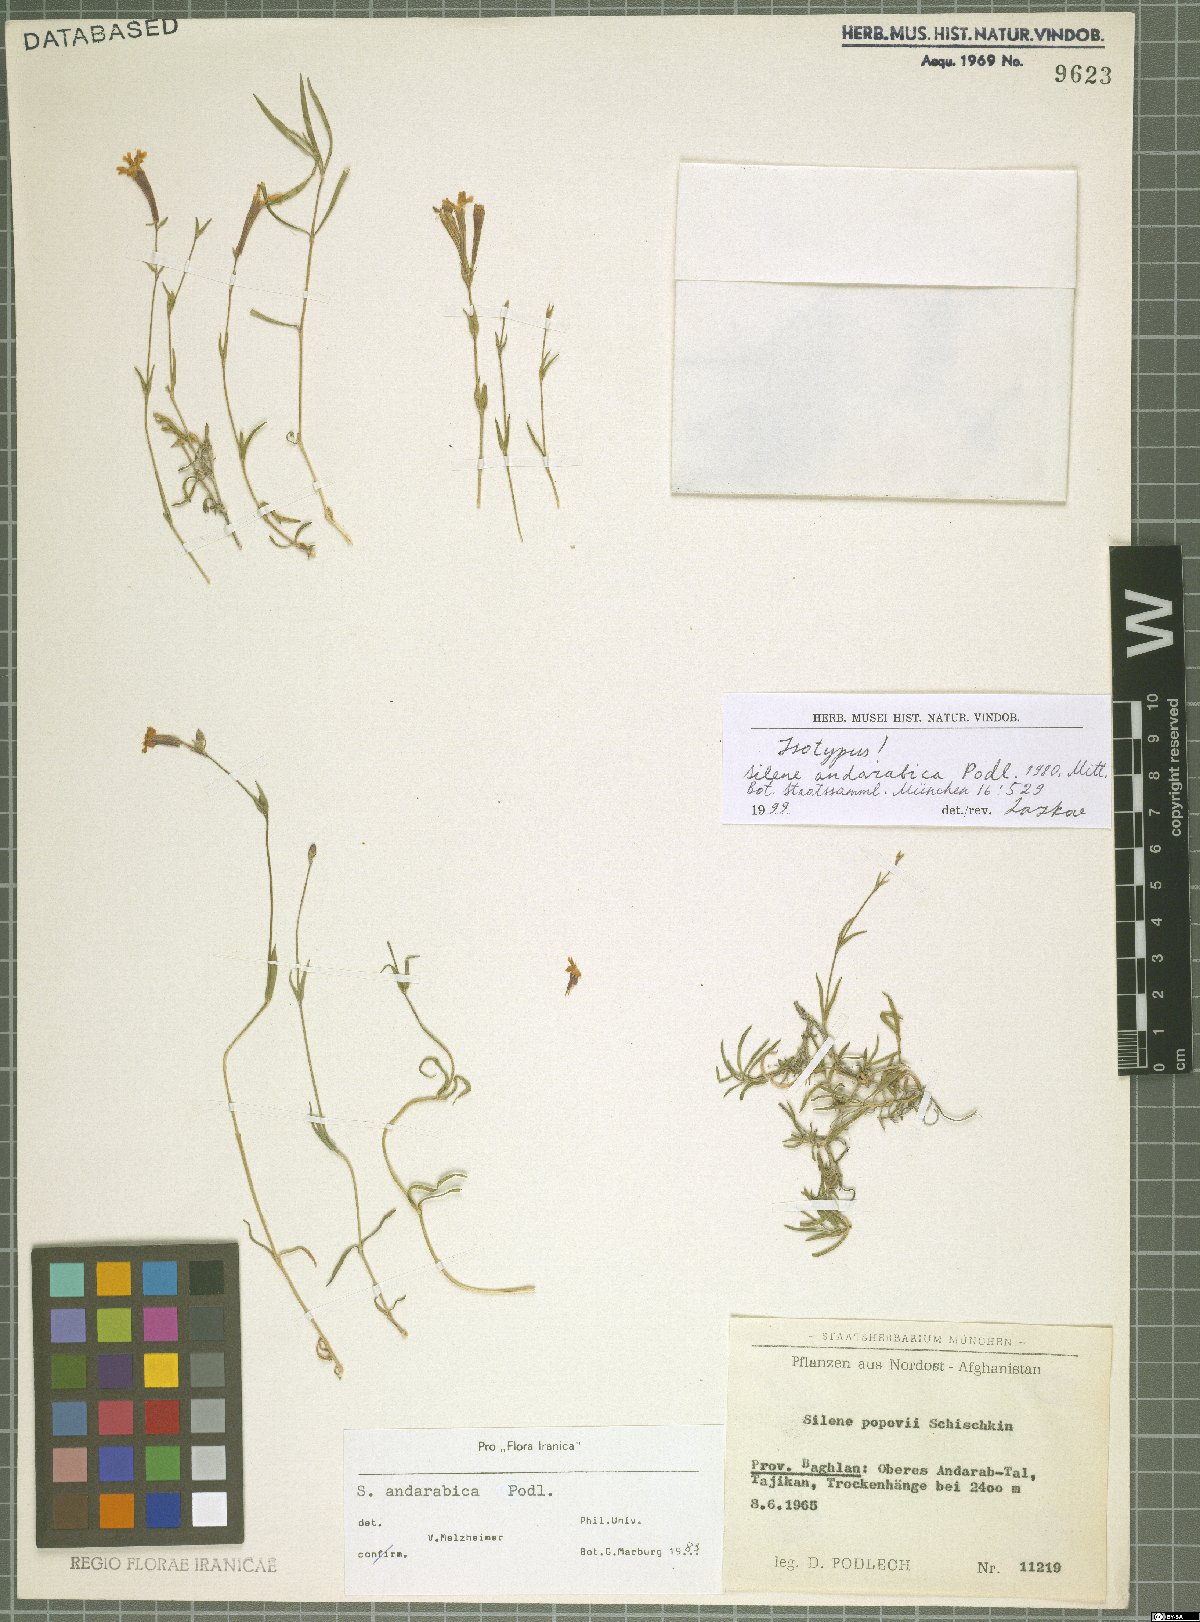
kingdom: Plantae
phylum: Tracheophyta
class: Magnoliopsida
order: Caryophyllales
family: Caryophyllaceae
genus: Silene
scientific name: Silene andarabica
